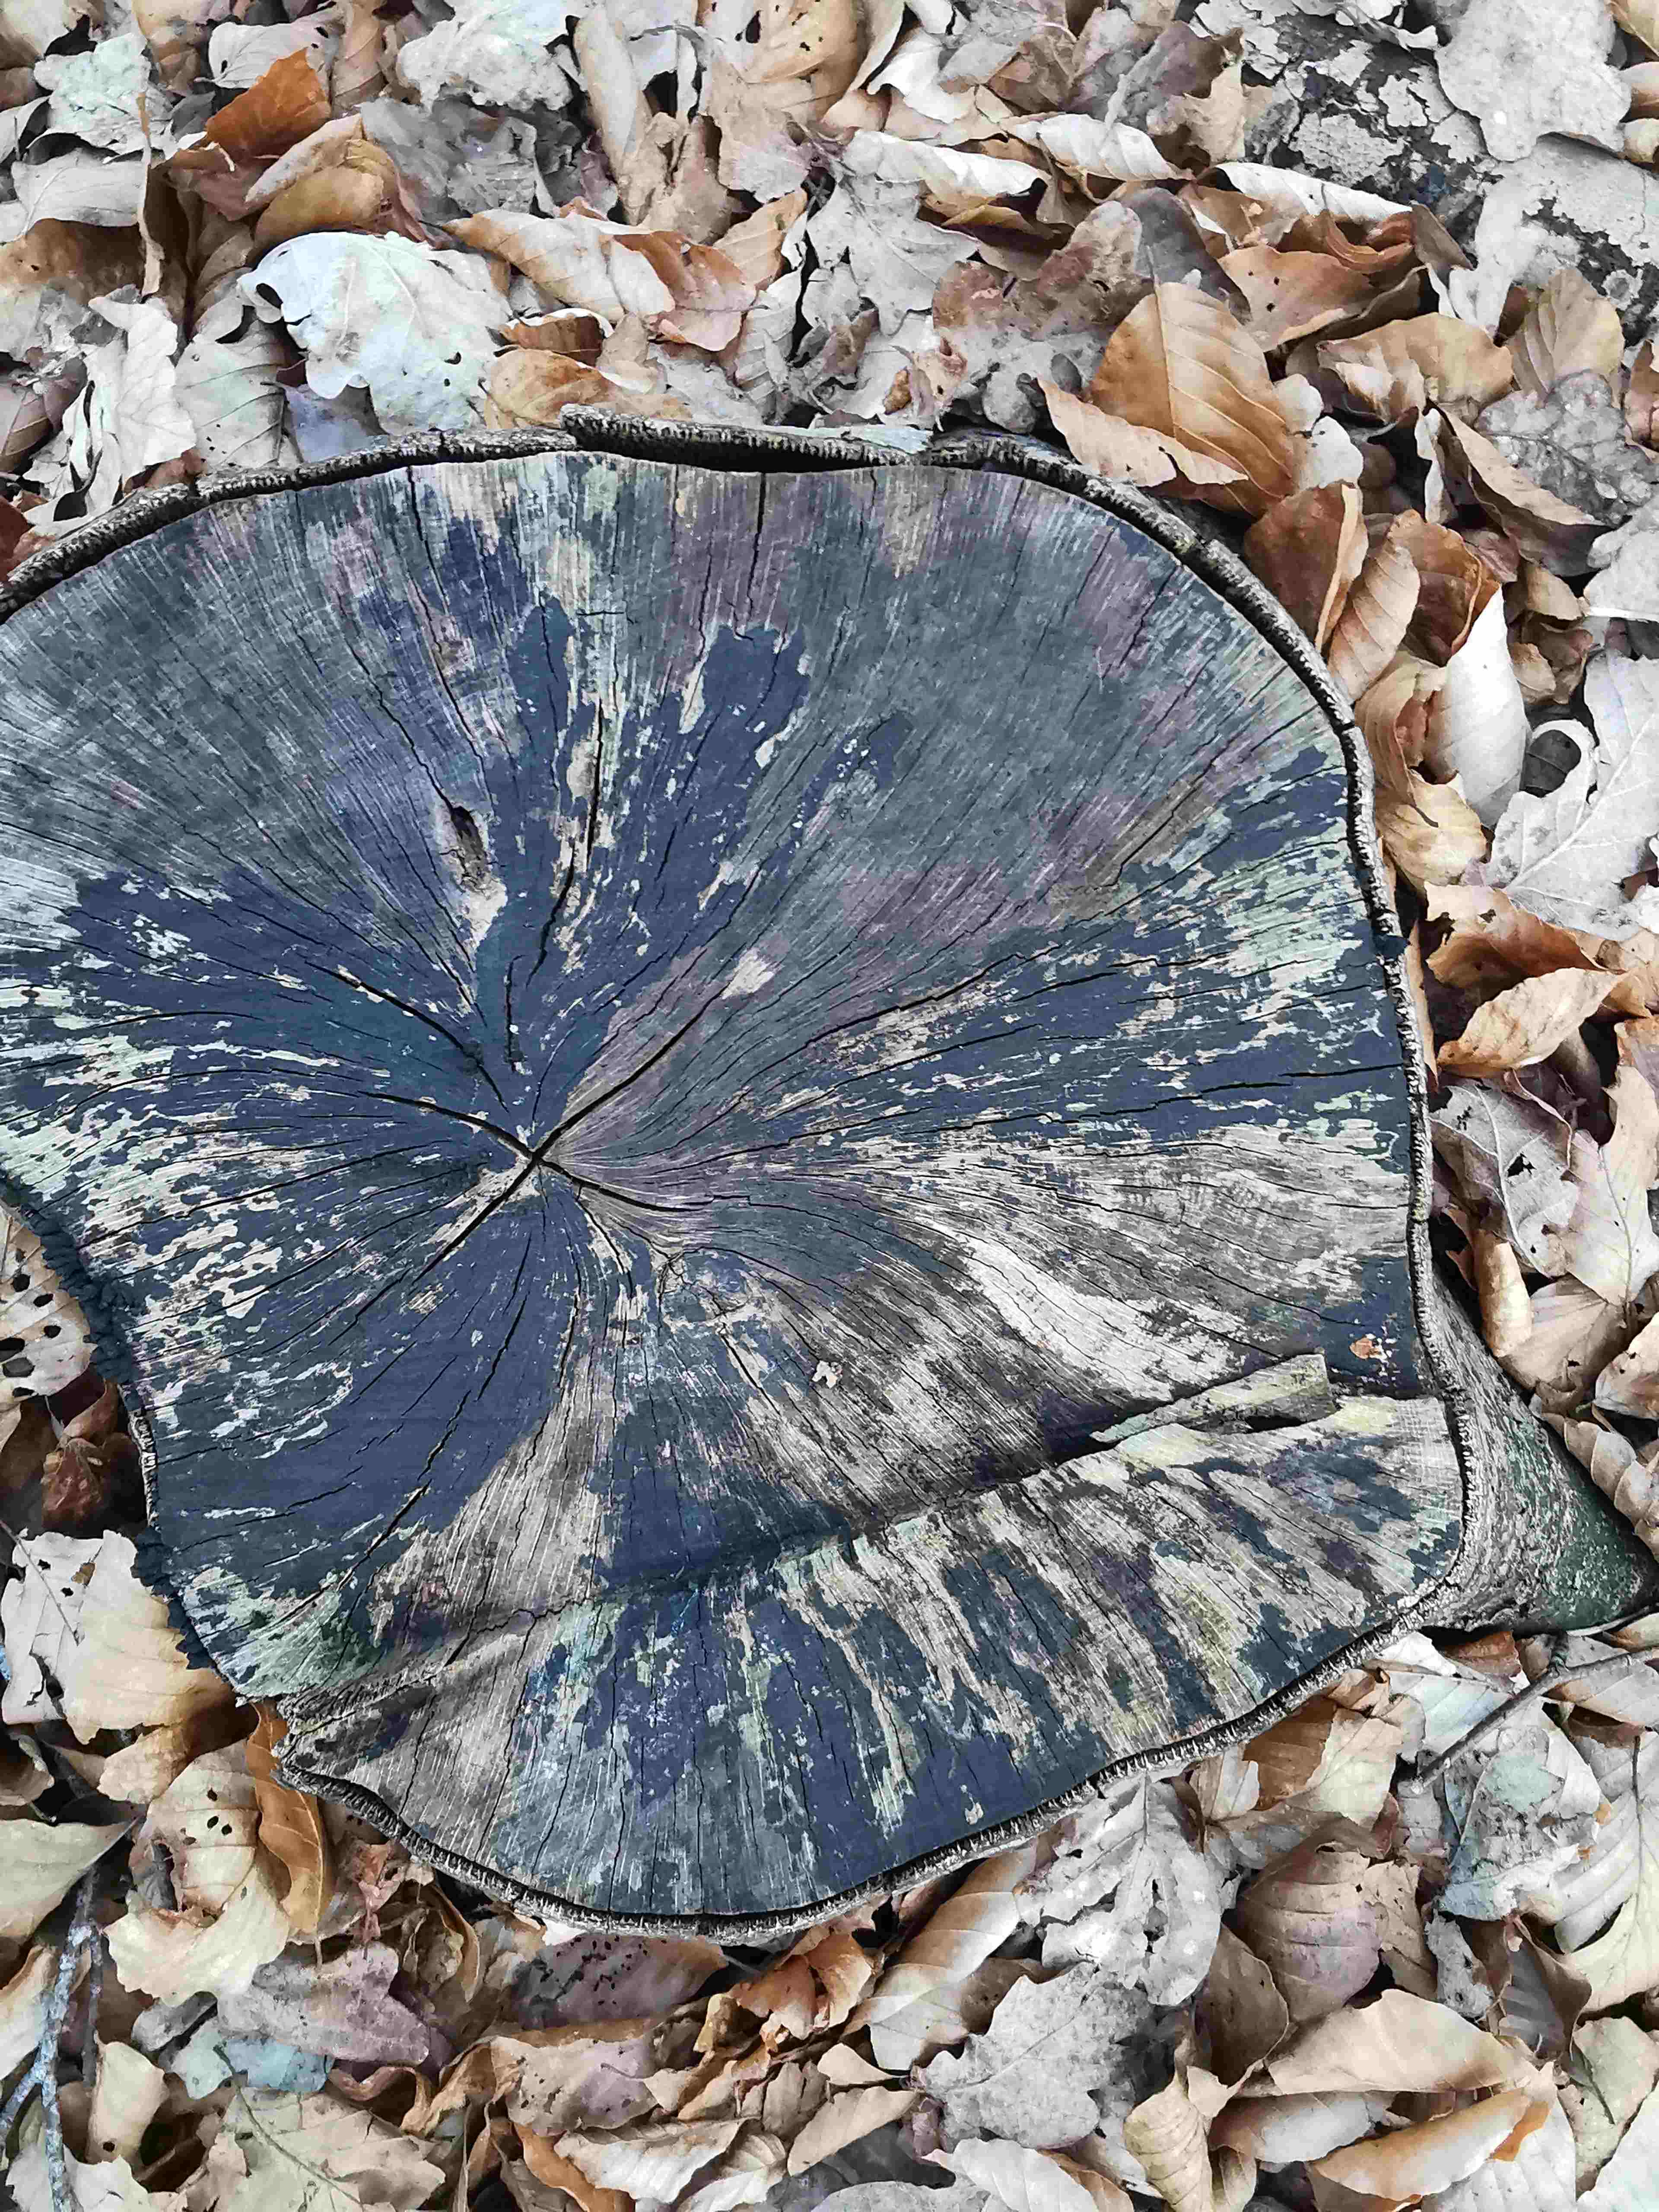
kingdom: Fungi
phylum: Ascomycota
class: Leotiomycetes
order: Helotiales
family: Helotiaceae
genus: Bispora
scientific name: Bispora pallescens
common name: måtte-snitskive
